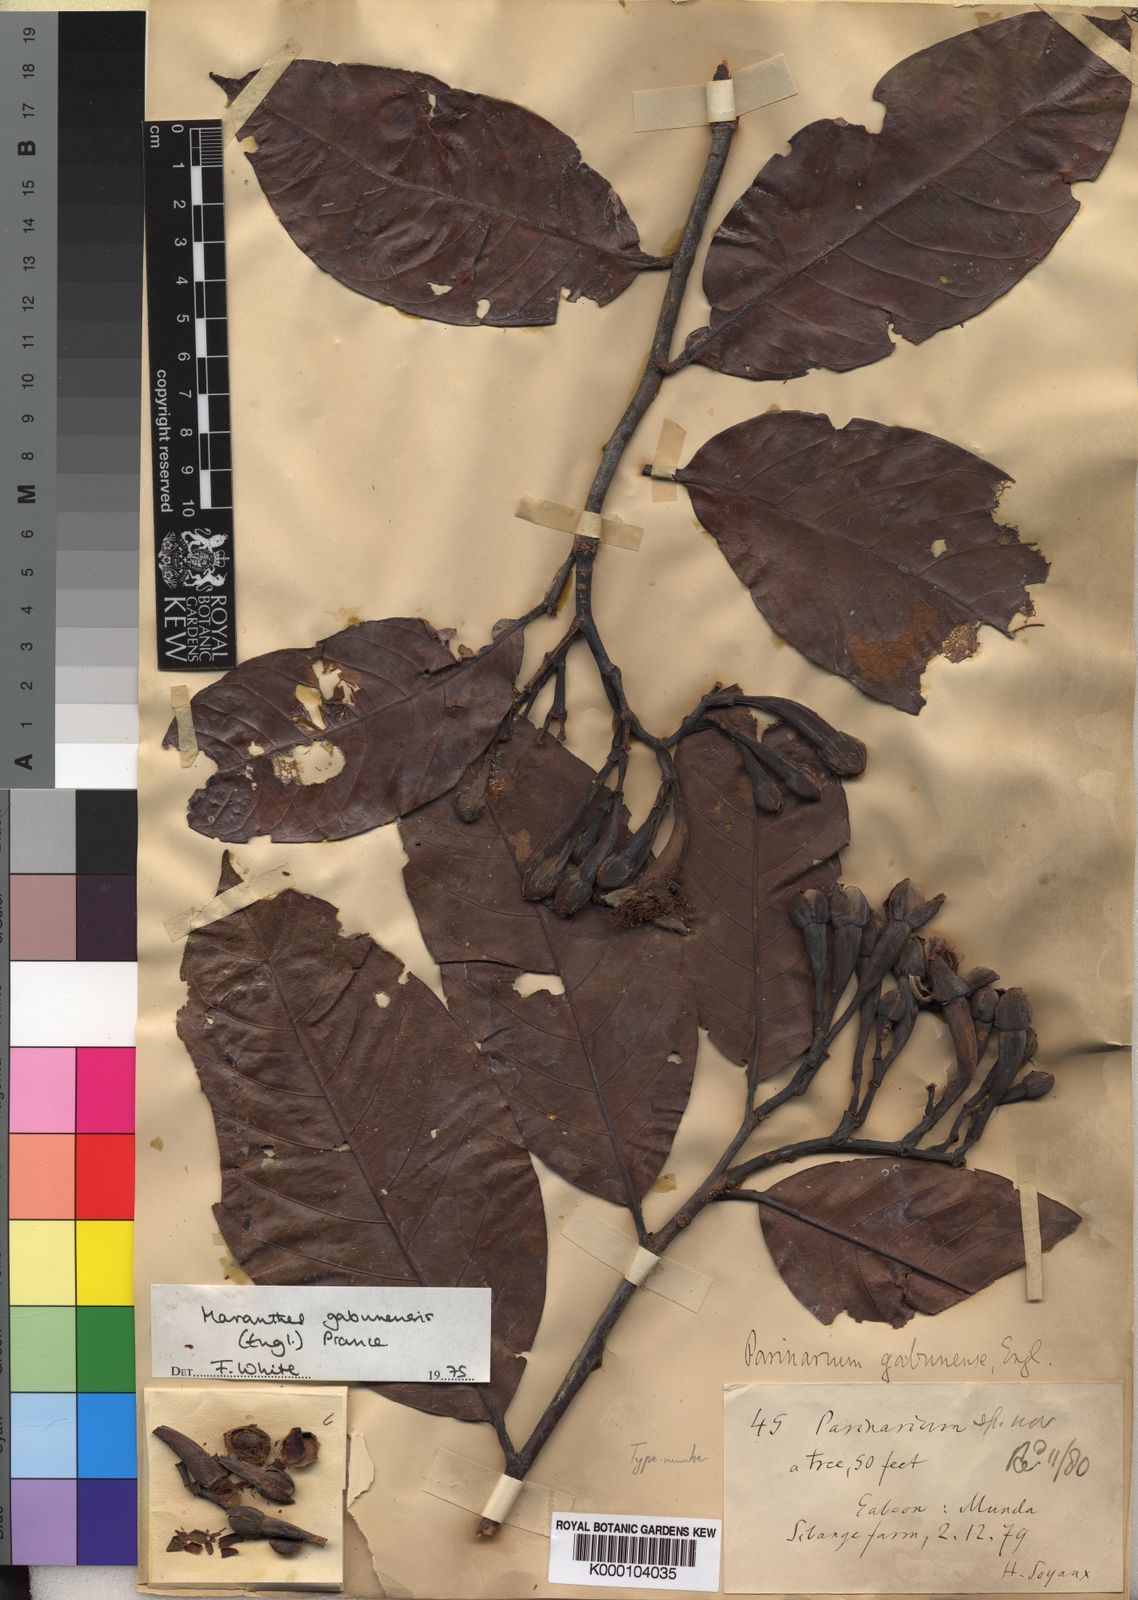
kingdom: Plantae
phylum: Tracheophyta
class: Magnoliopsida
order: Malpighiales
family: Chrysobalanaceae
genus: Maranthes
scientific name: Maranthes gabunensis
